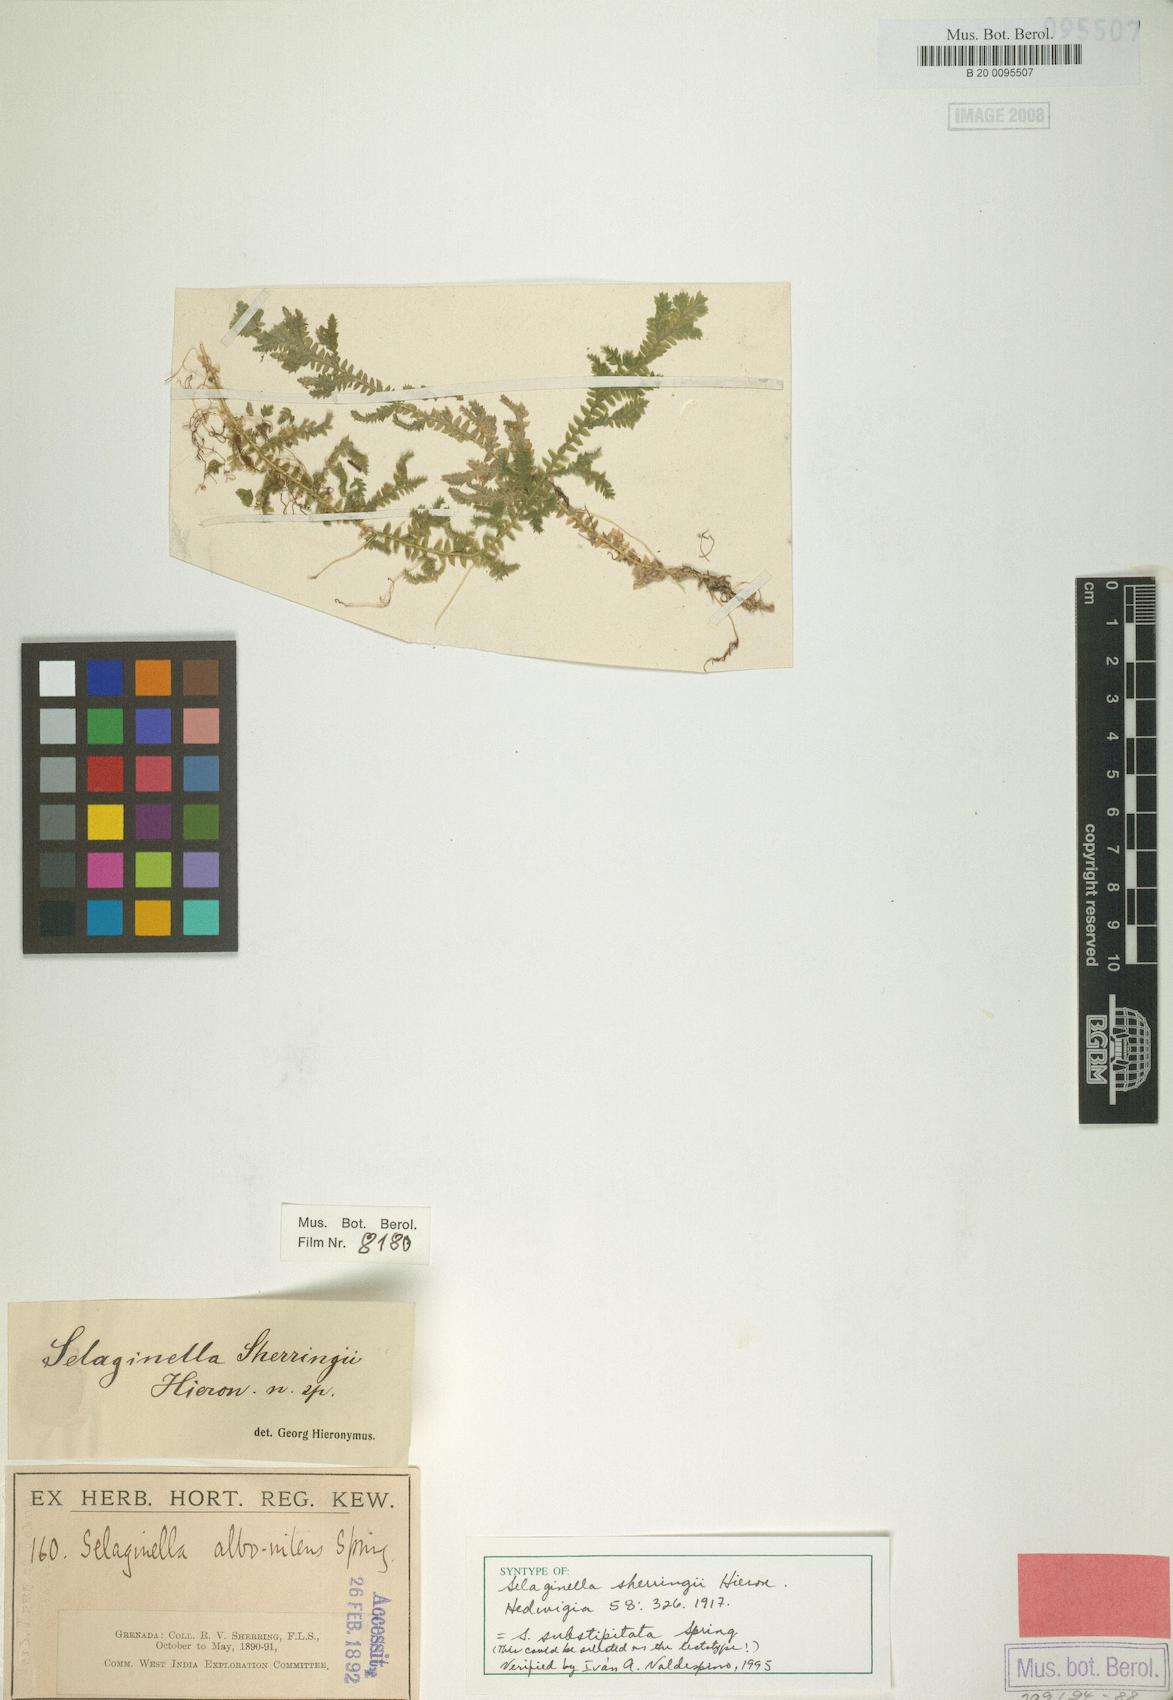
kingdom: Plantae
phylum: Tracheophyta
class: Lycopodiopsida
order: Selaginellales
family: Selaginellaceae
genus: Selaginella
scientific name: Selaginella substipitata
